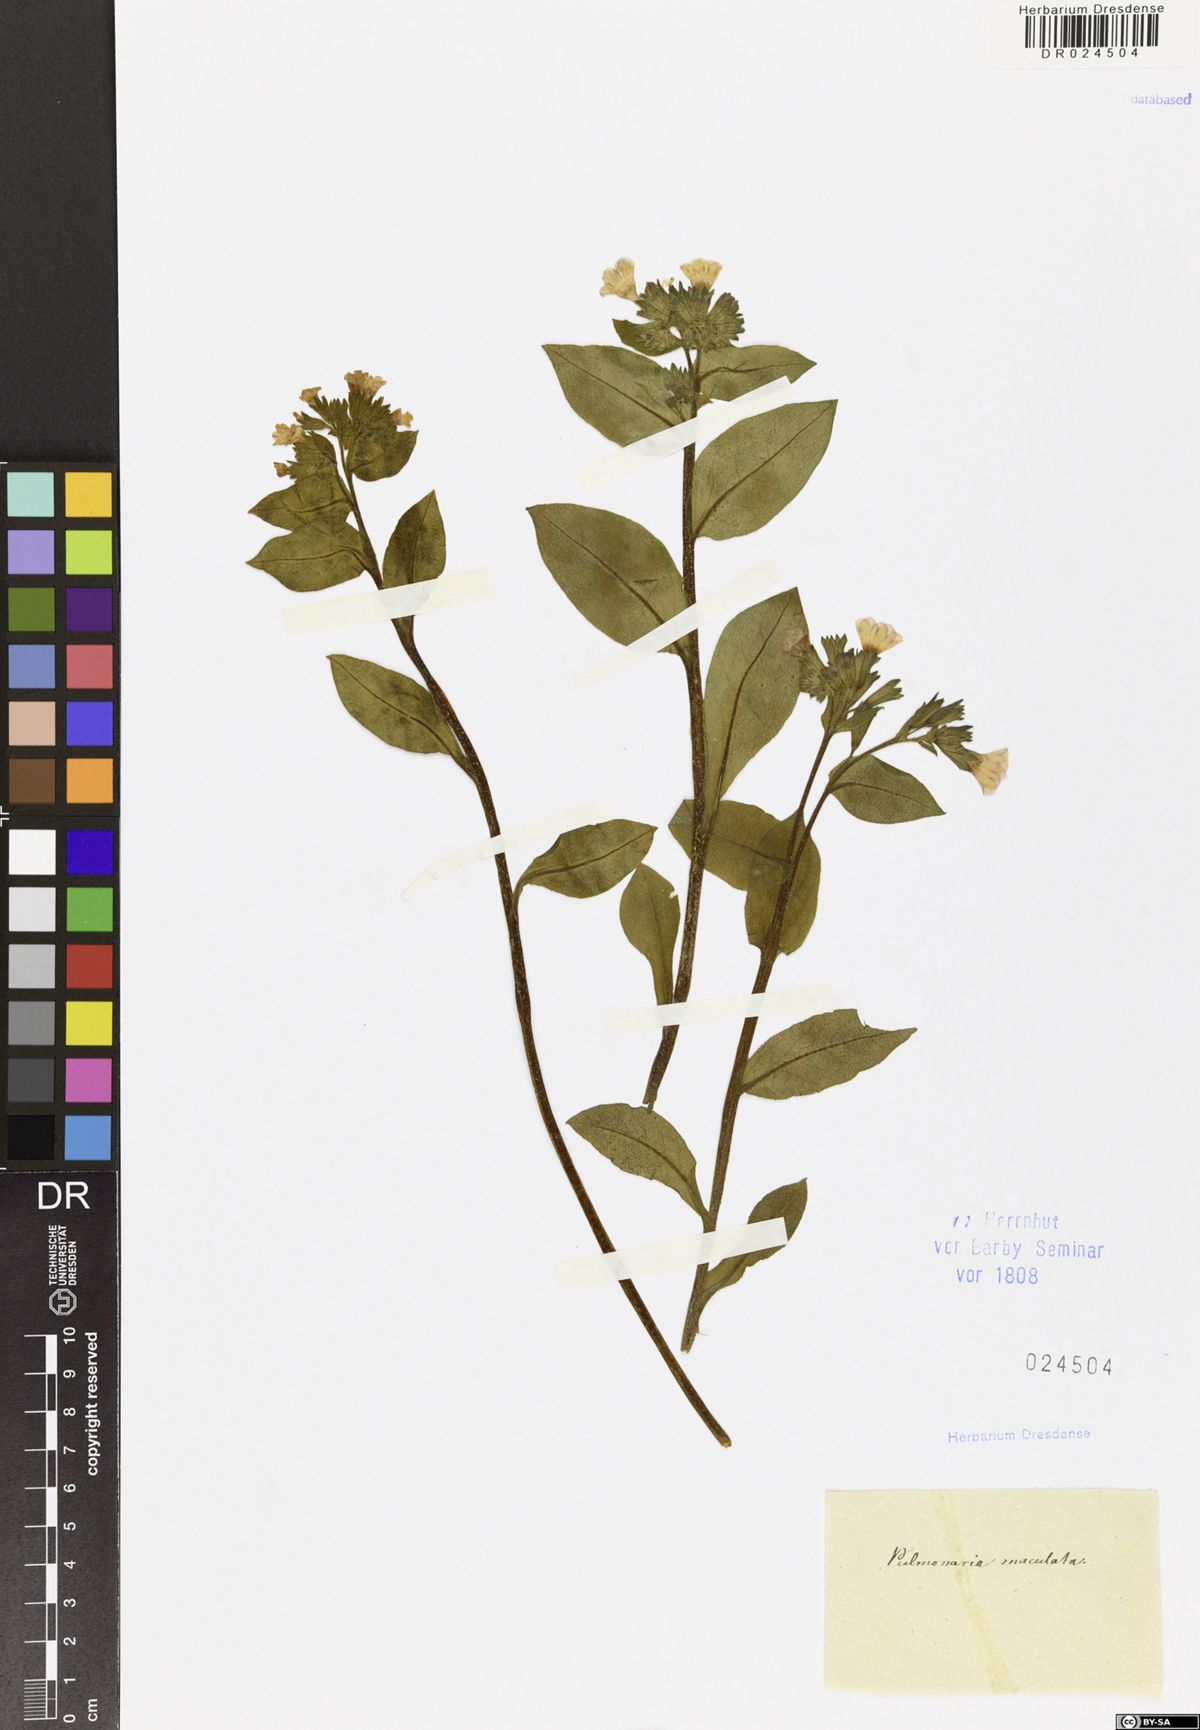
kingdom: Plantae
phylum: Tracheophyta
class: Magnoliopsida
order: Boraginales
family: Boraginaceae
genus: Pulmonaria
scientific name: Pulmonaria obscura
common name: Suffolk lungwort
